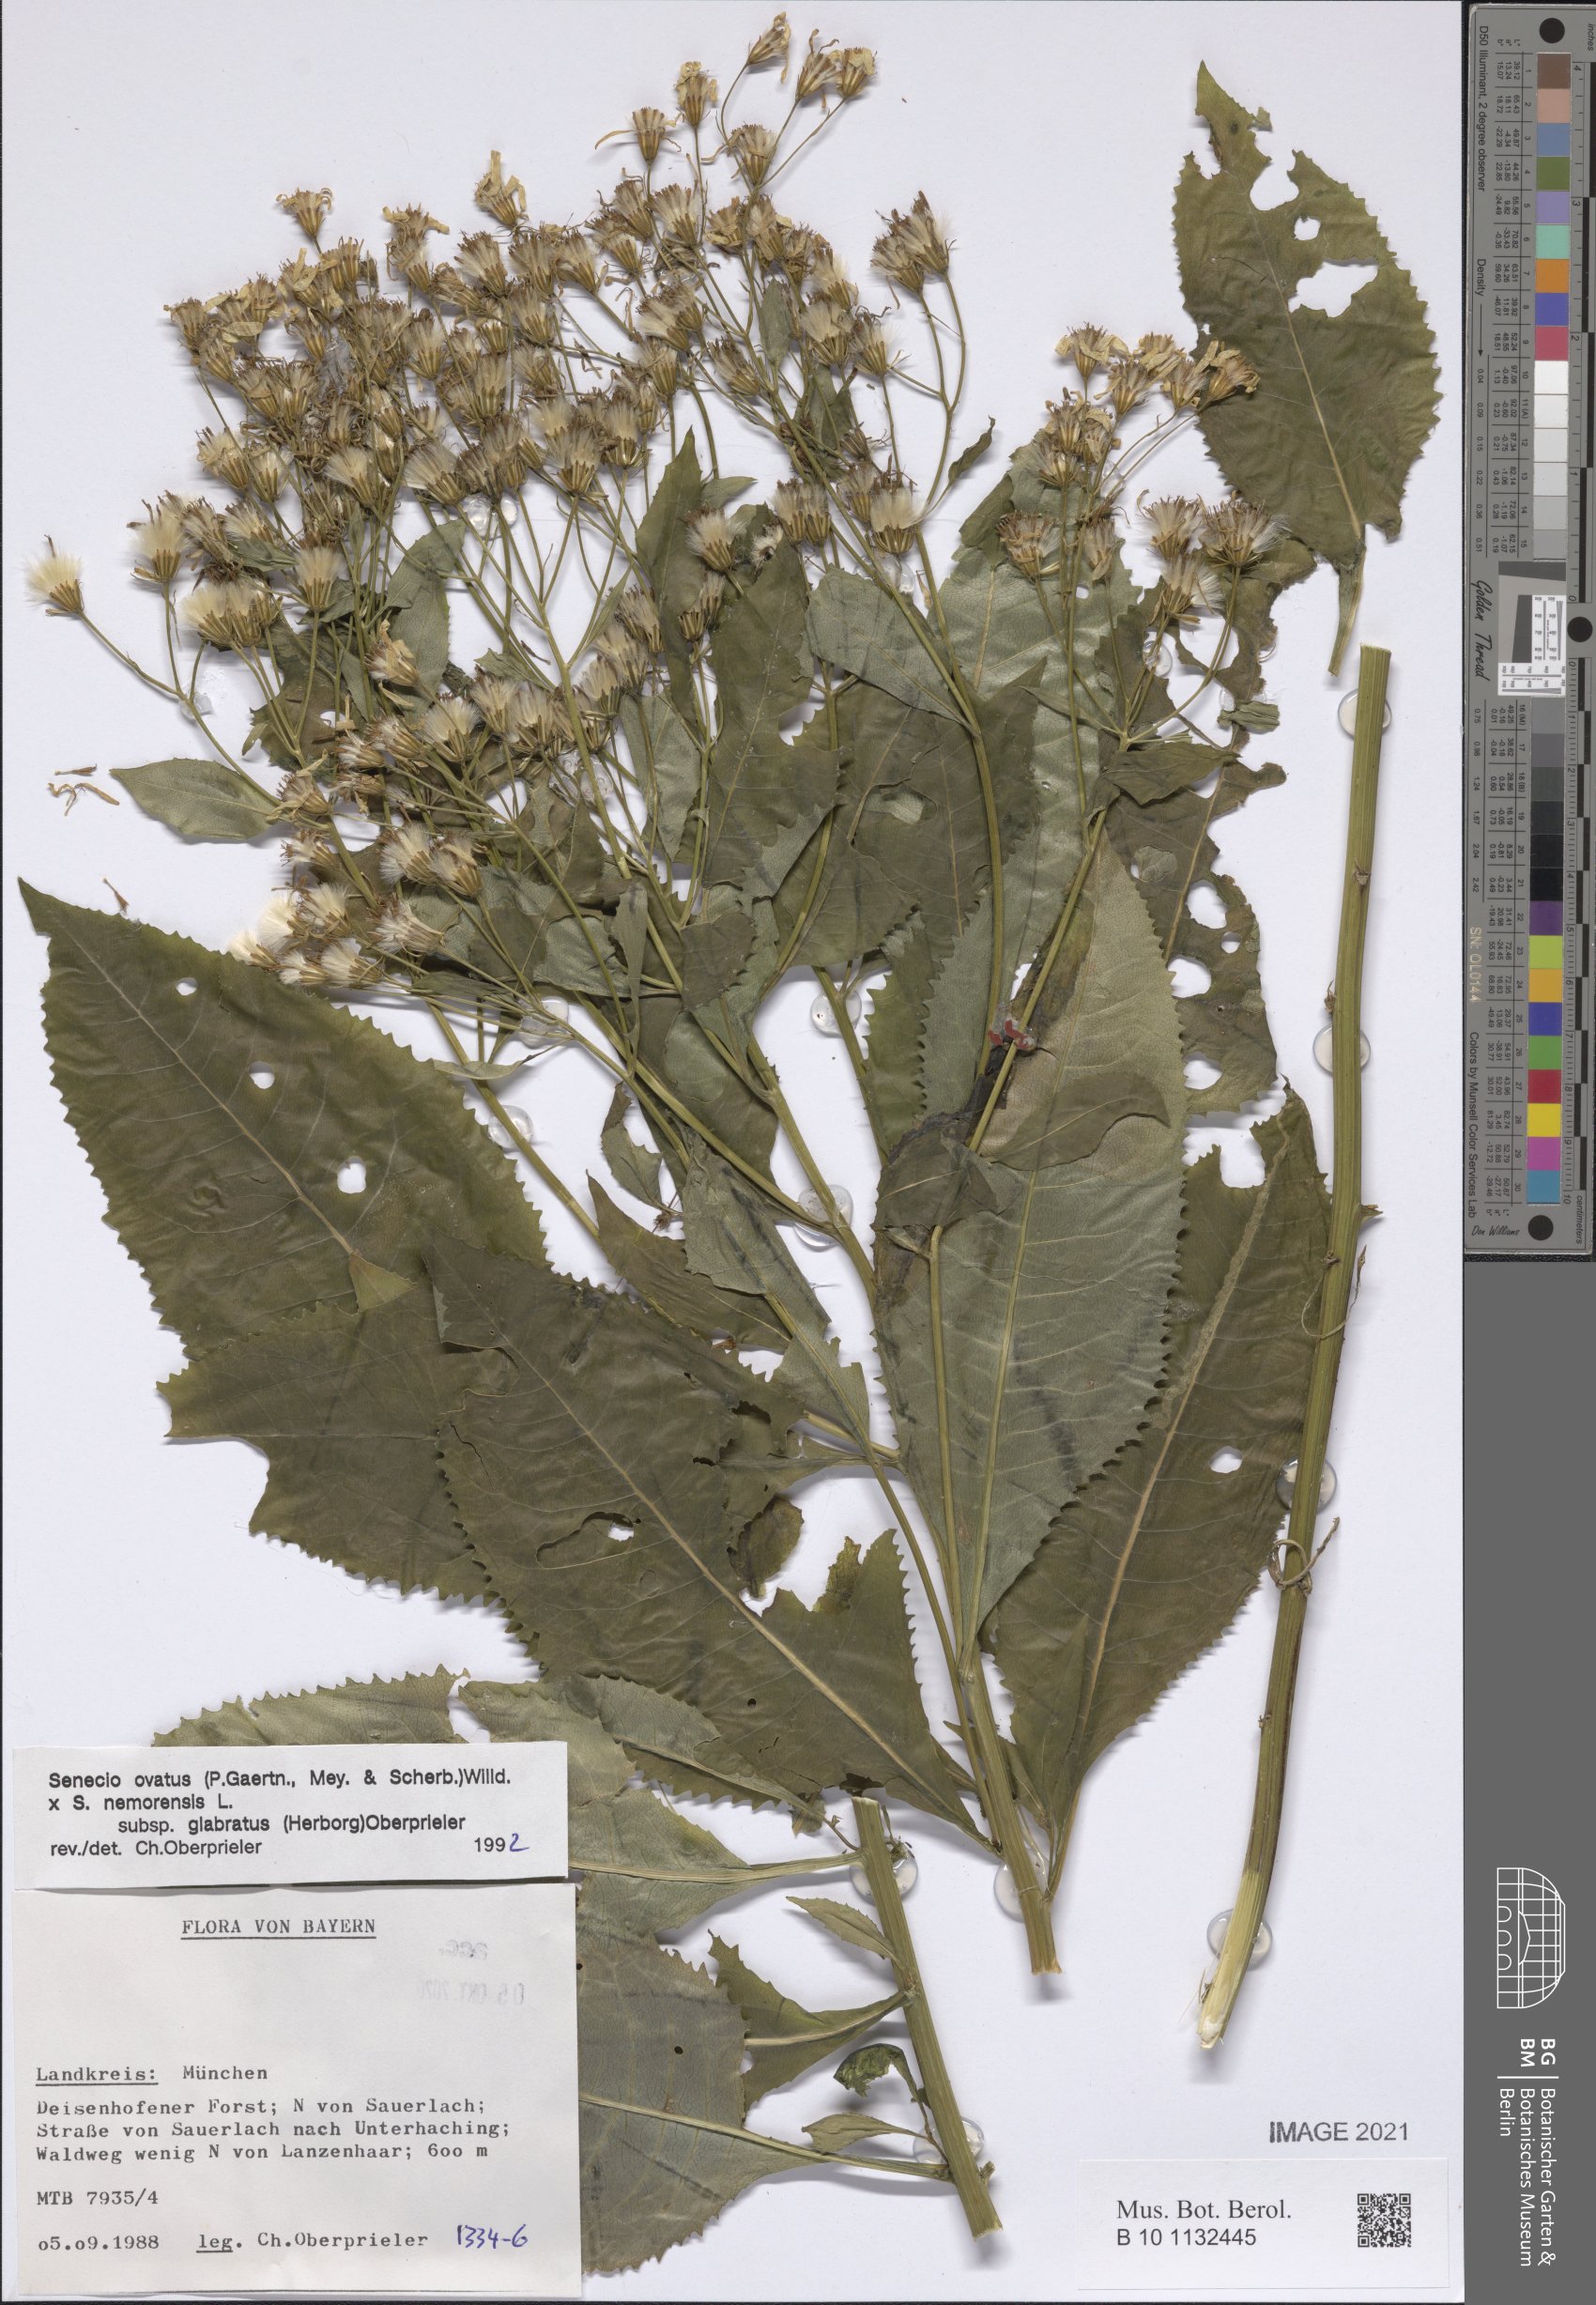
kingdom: Plantae
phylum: Tracheophyta
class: Magnoliopsida
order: Asterales
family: Asteraceae
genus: Senecio
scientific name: Senecio ovatus
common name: Wood ragwort
